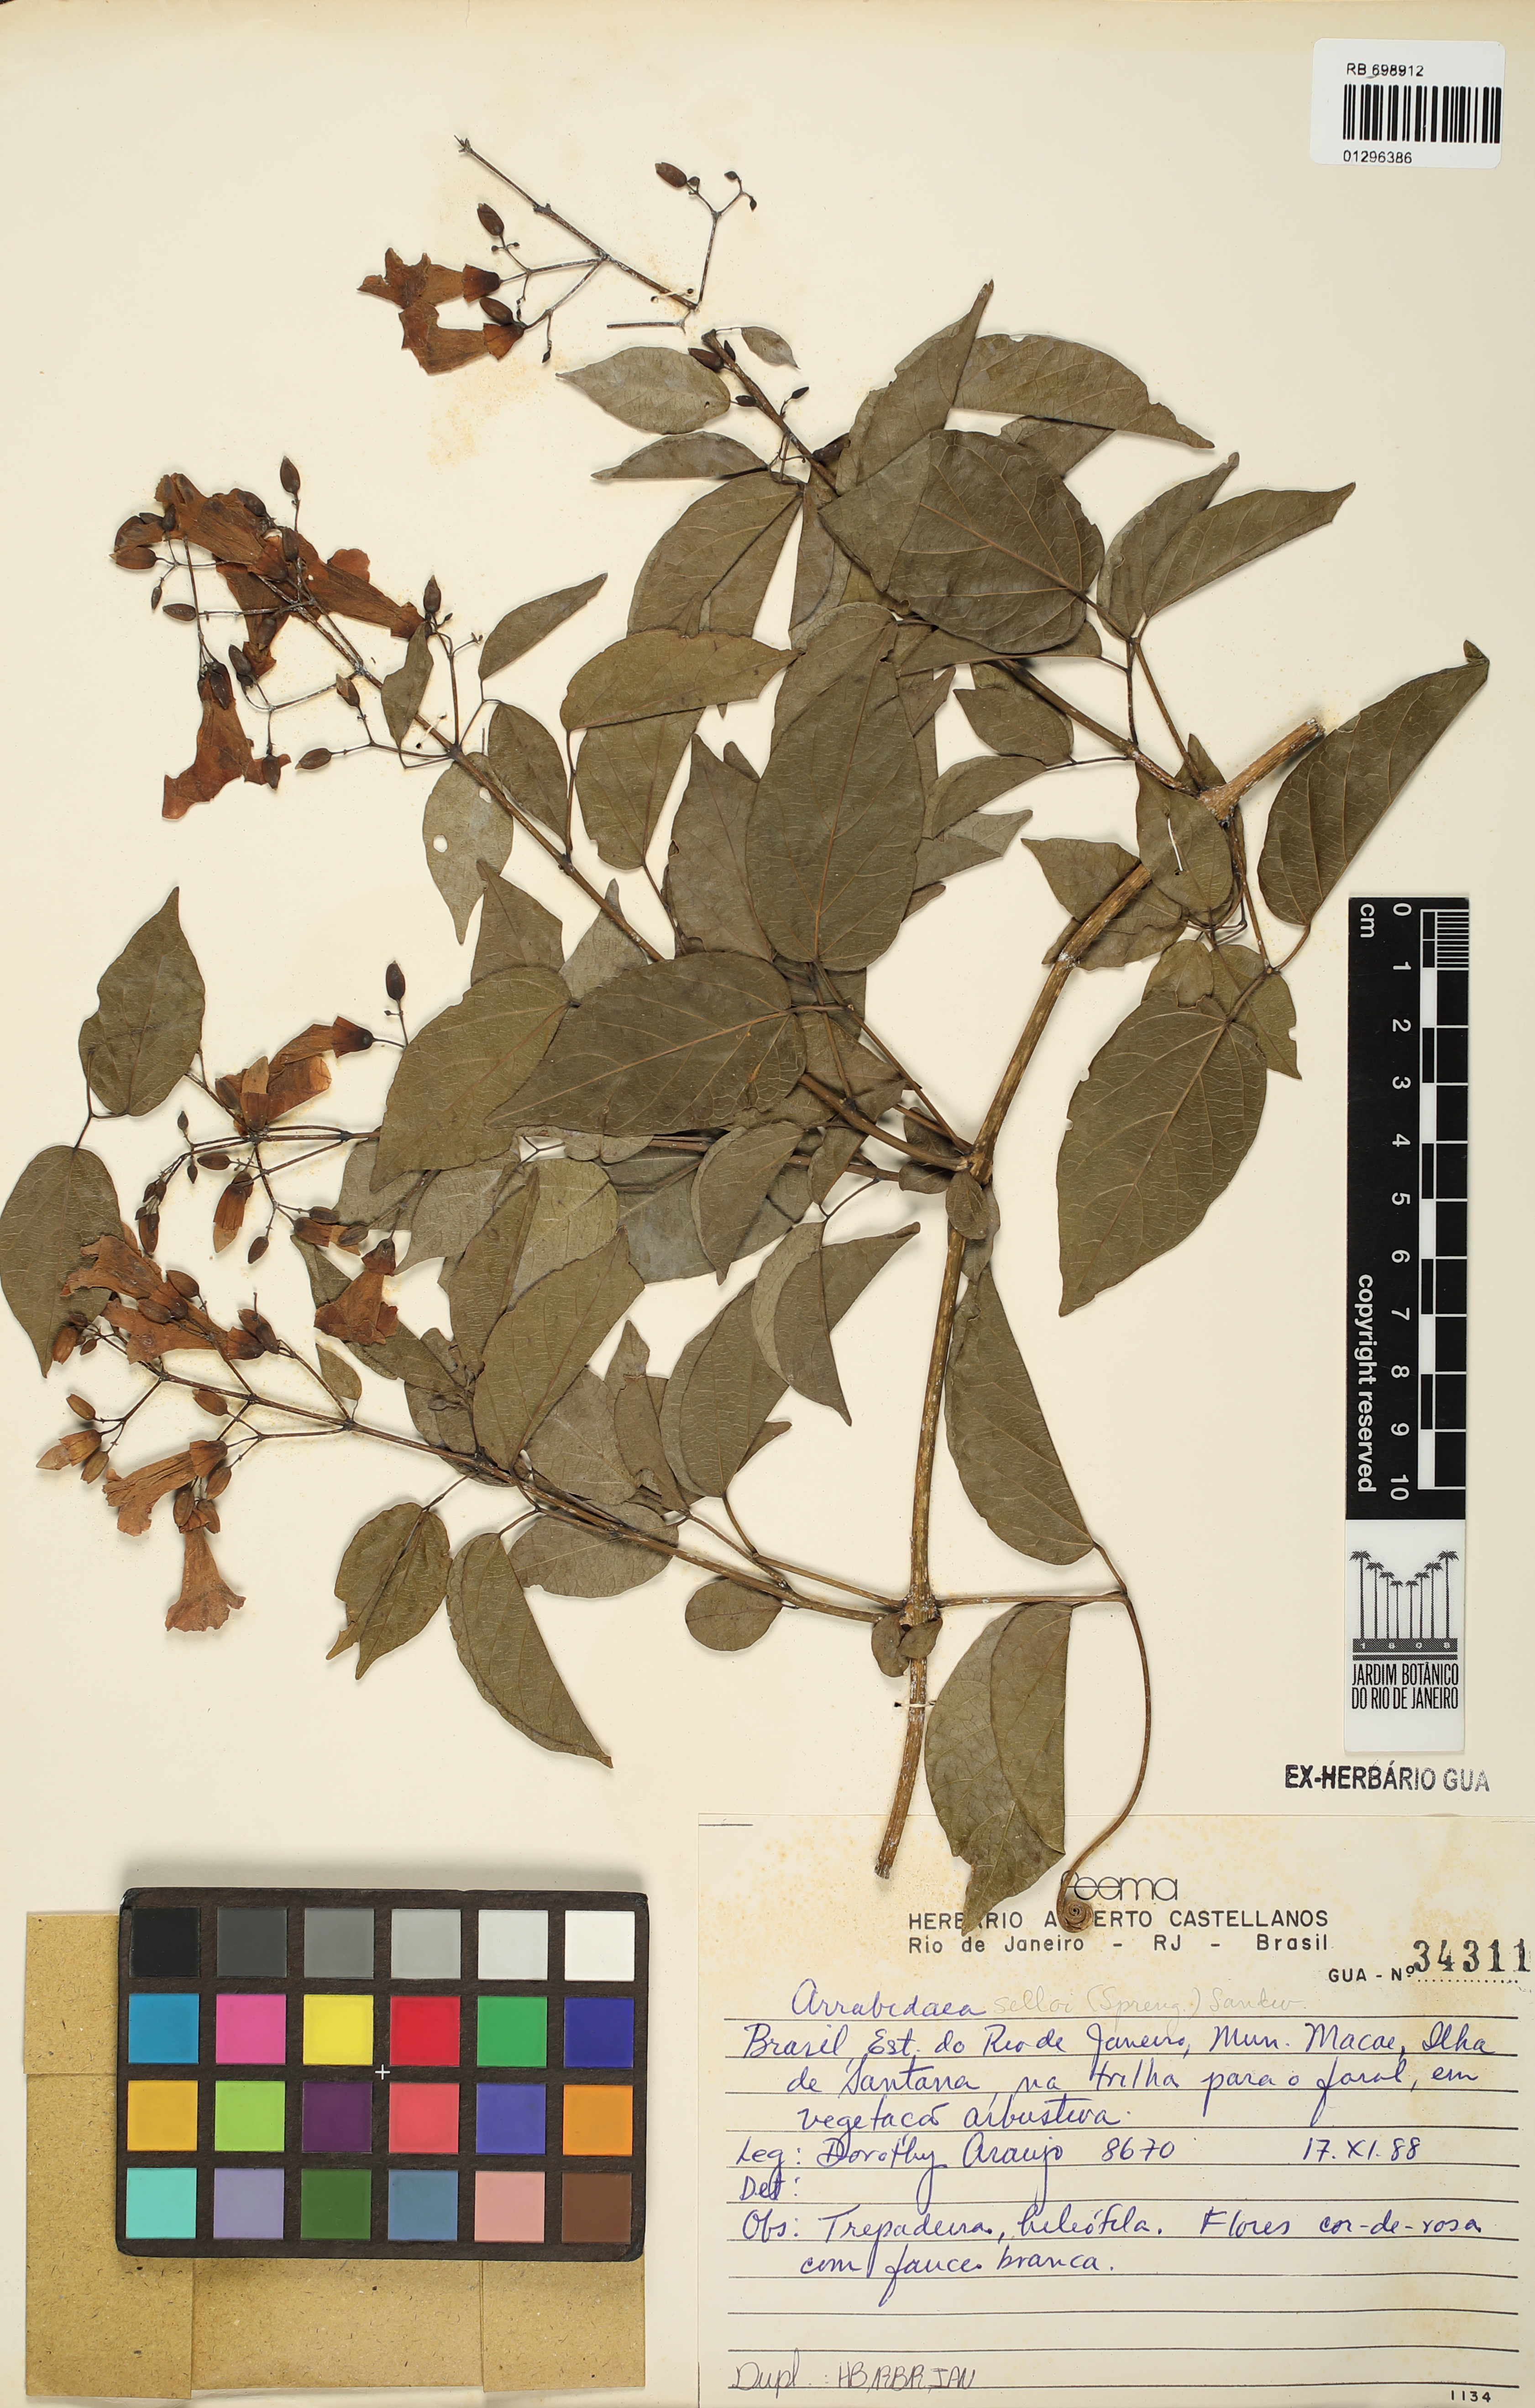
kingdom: Plantae
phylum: Tracheophyta
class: Magnoliopsida
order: Lamiales
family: Bignoniaceae
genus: Tanaecium
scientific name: Tanaecium selloi
